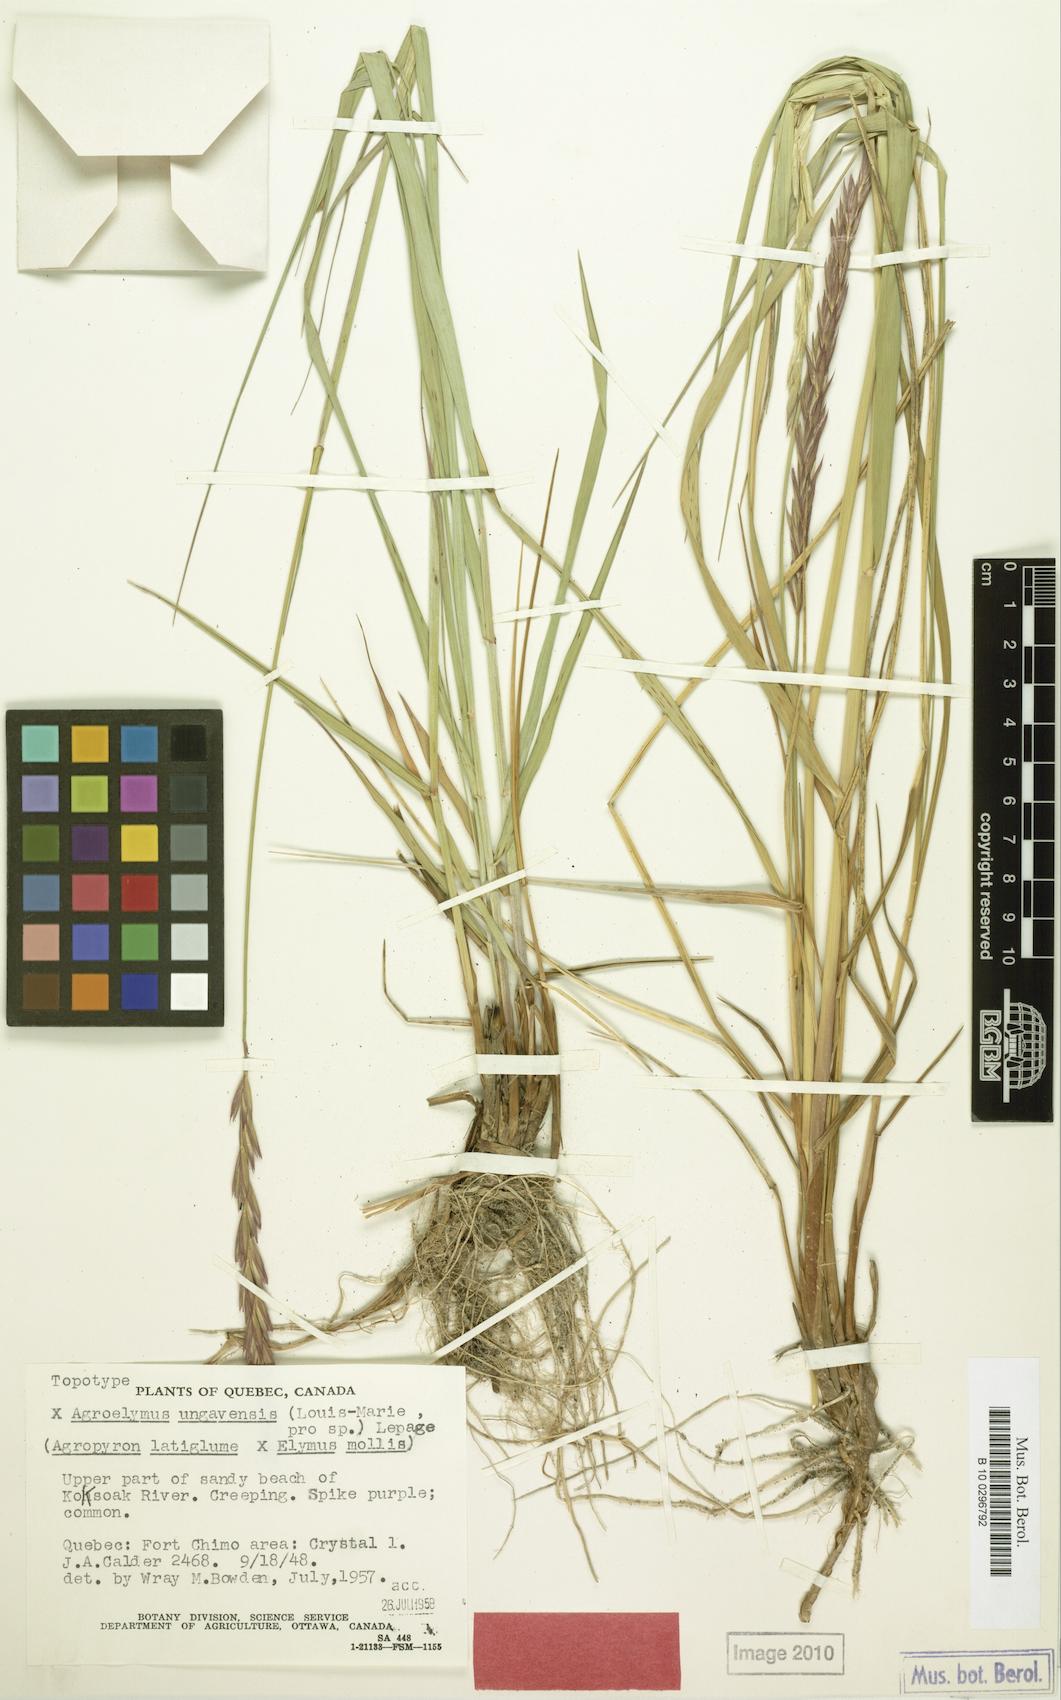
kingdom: Plantae
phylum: Tracheophyta
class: Liliopsida
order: Poales
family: Poaceae
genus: Agroelymus
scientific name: Agroelymus ungavensis
